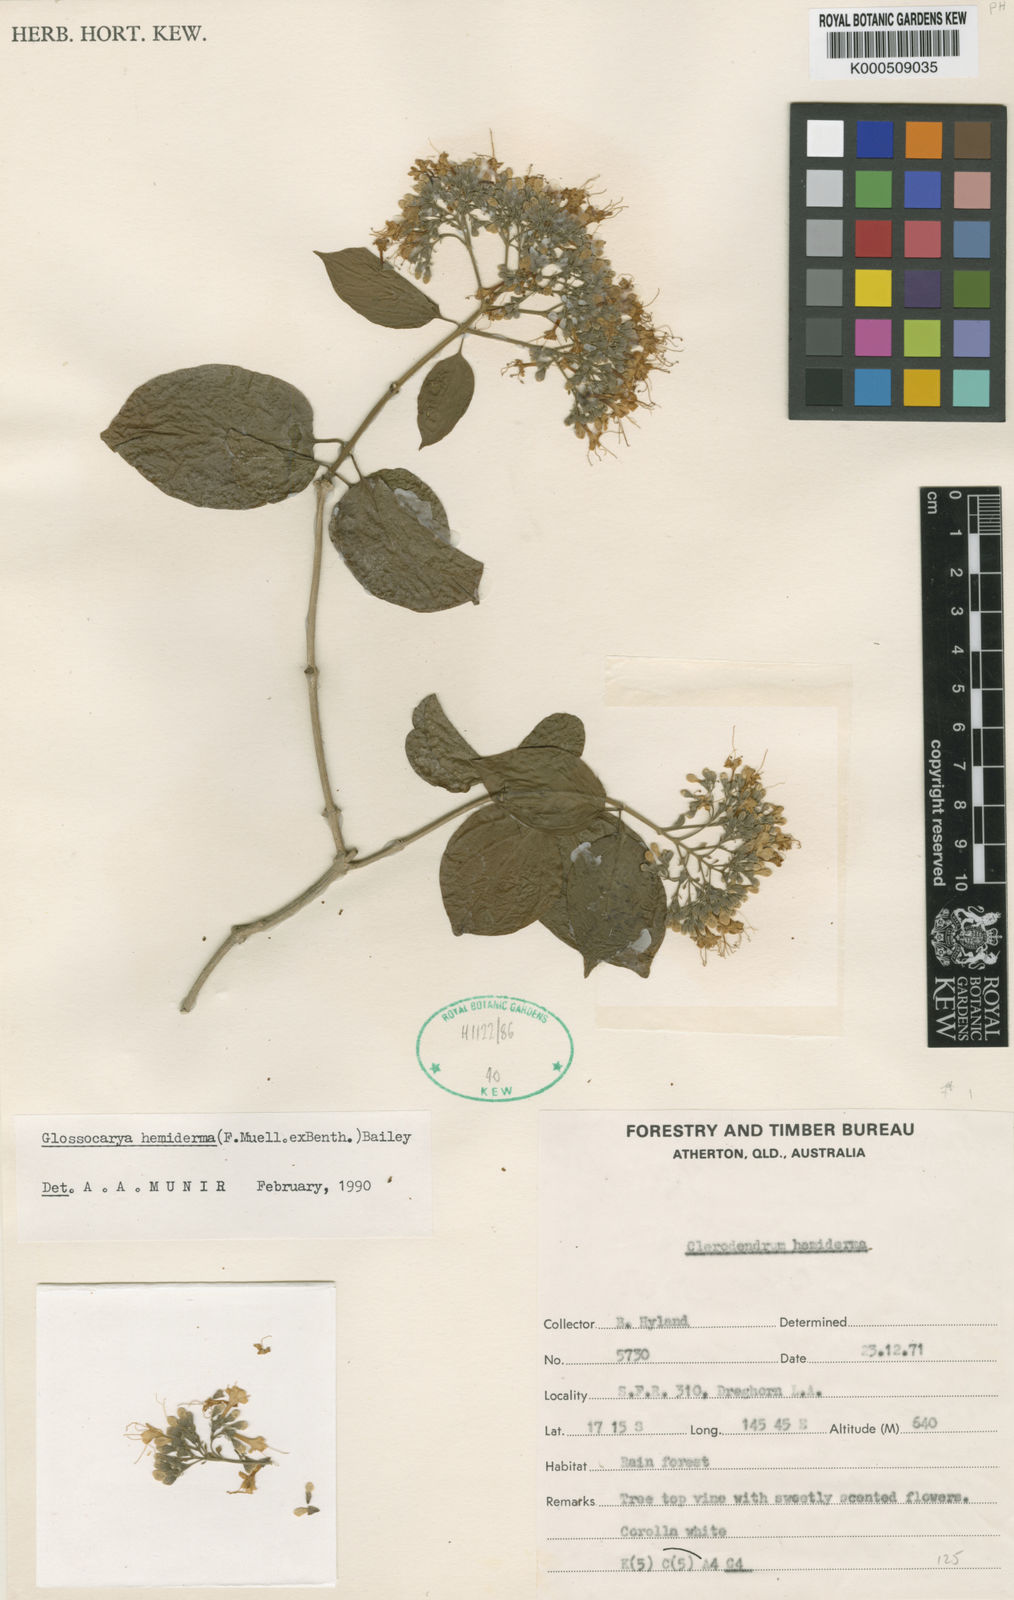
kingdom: Plantae
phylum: Tracheophyta
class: Magnoliopsida
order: Lamiales
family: Lamiaceae
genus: Glossocarya
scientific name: Glossocarya
